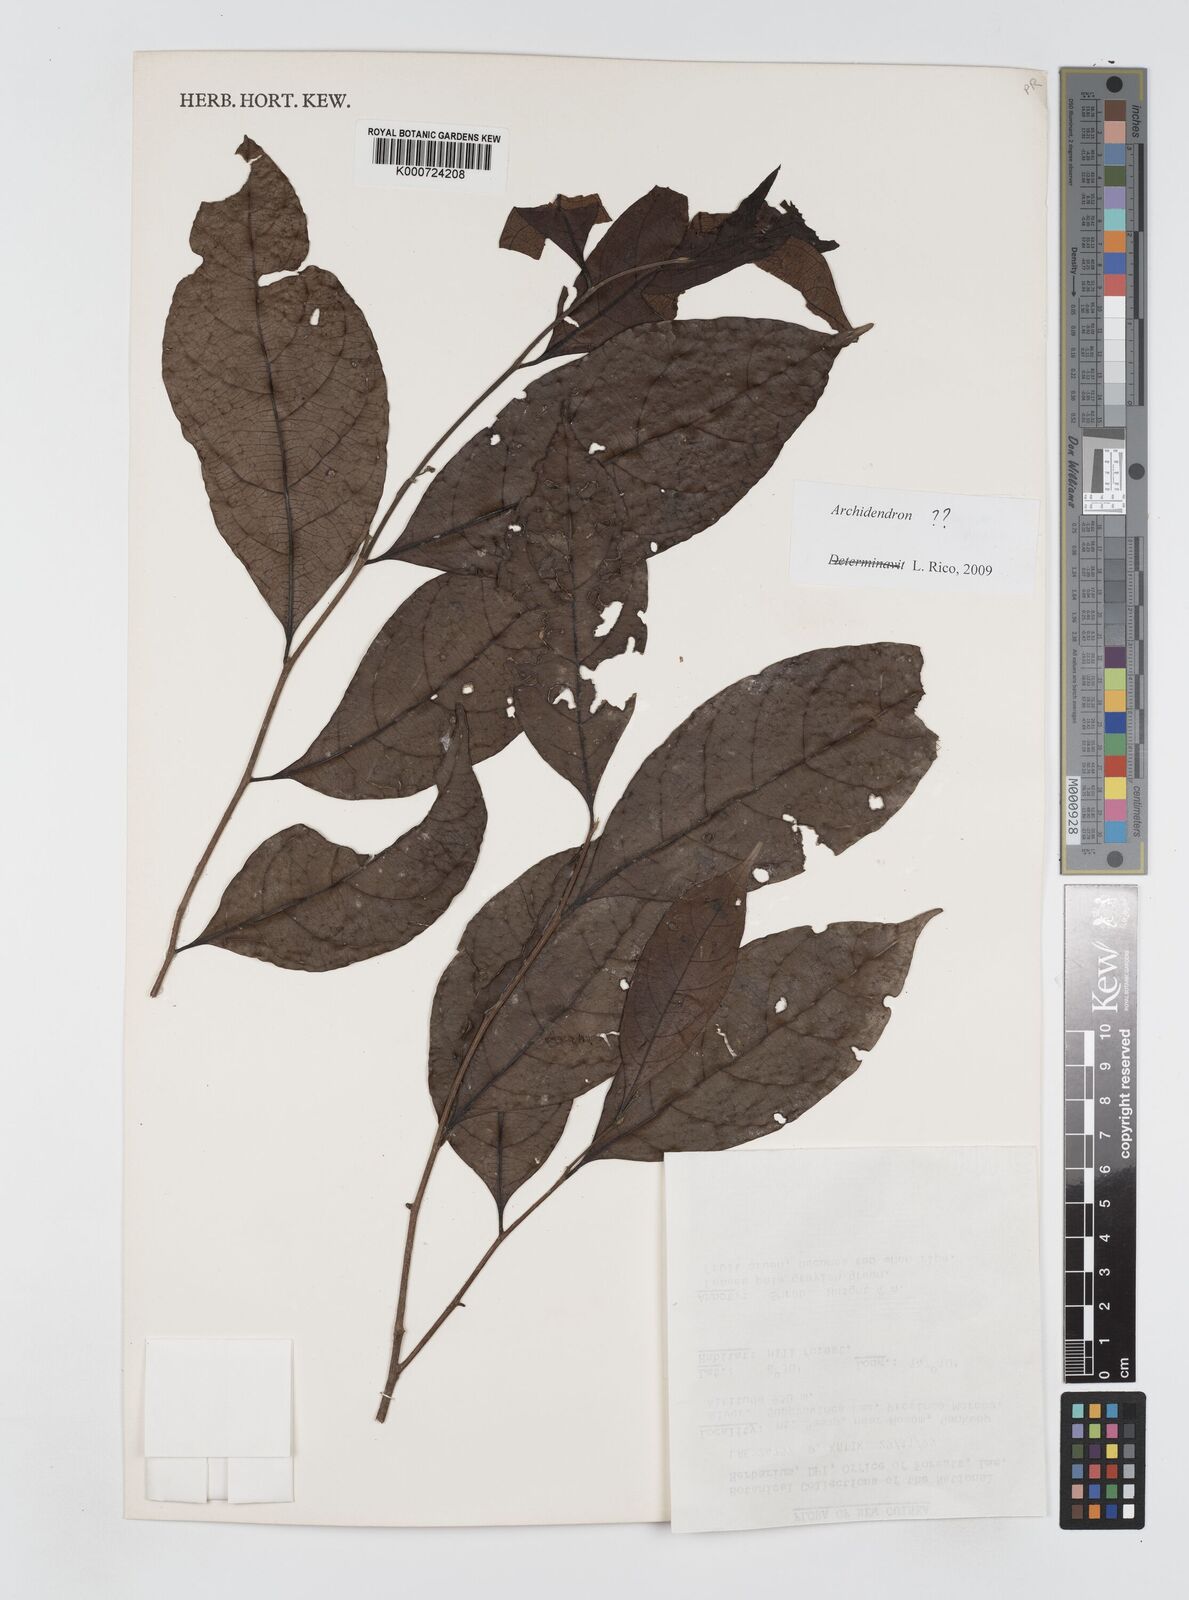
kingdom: Plantae
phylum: Tracheophyta
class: Magnoliopsida
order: Fabales
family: Fabaceae
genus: Archidendron
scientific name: Archidendron palauense
